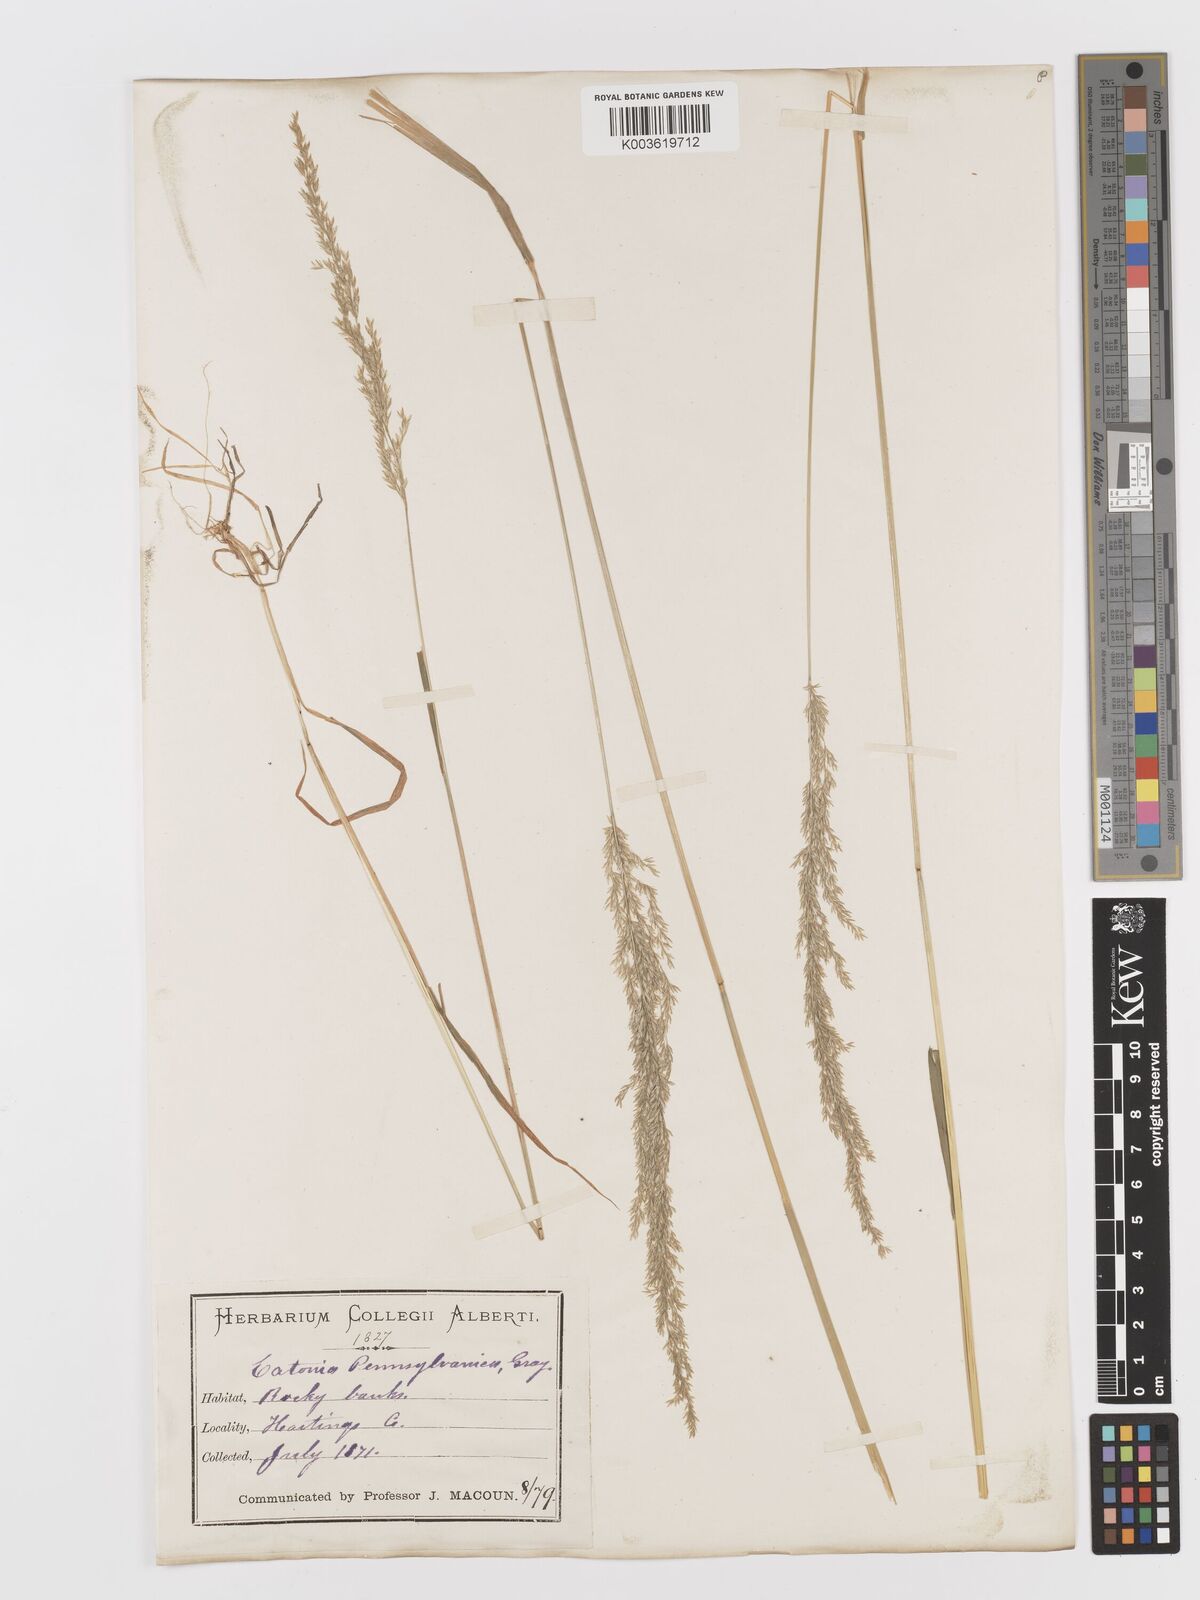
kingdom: Plantae
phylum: Tracheophyta
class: Liliopsida
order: Poales
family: Poaceae
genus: Sphenopholis
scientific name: Sphenopholis obtusata
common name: Prairie grass
